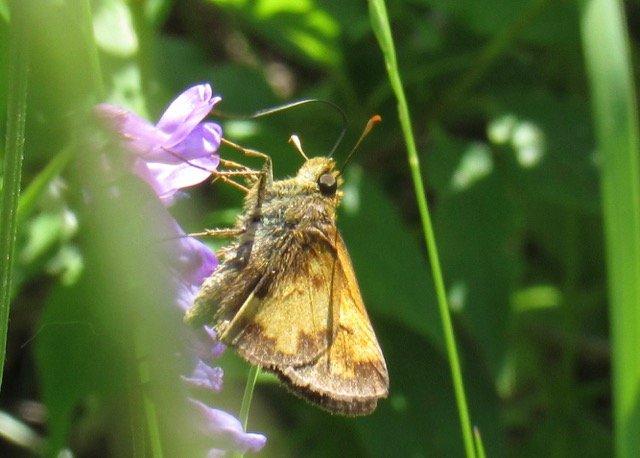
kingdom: Animalia
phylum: Arthropoda
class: Insecta
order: Lepidoptera
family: Hesperiidae
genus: Lon
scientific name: Lon hobomok
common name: Hobomok Skipper
